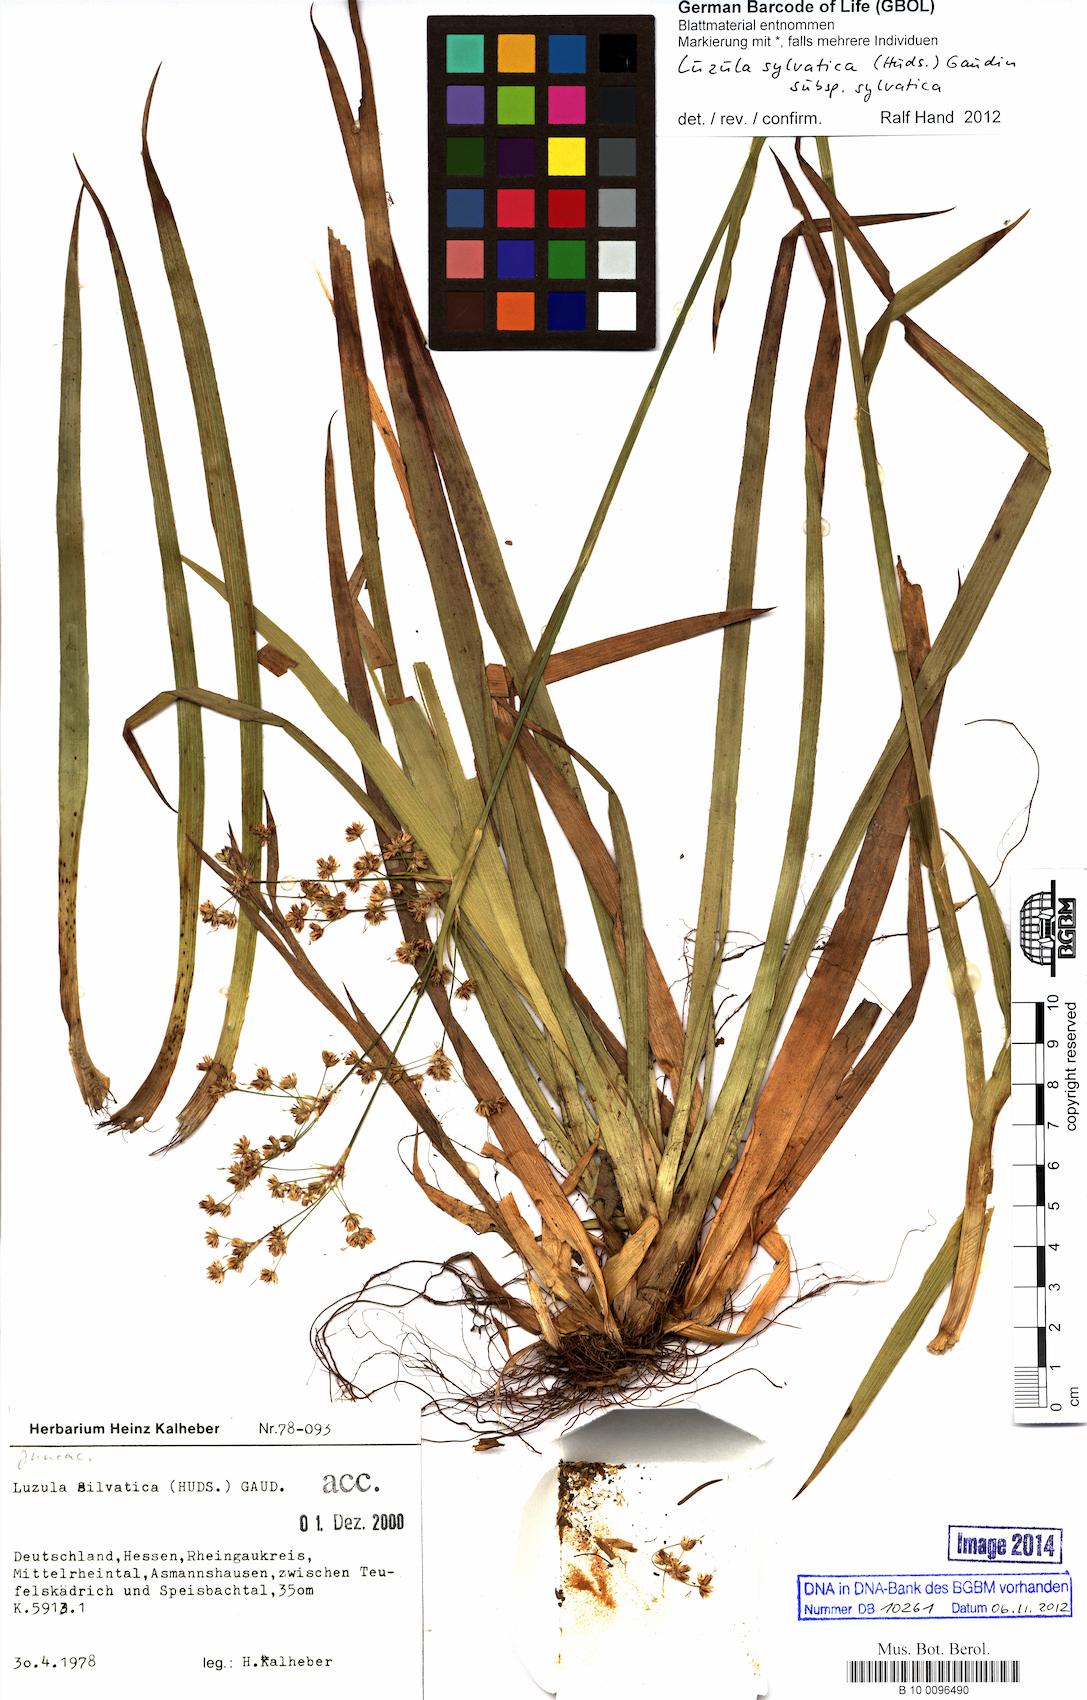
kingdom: Plantae
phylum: Tracheophyta
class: Liliopsida
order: Poales
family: Juncaceae
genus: Luzula
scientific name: Luzula sylvatica
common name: Great wood-rush
